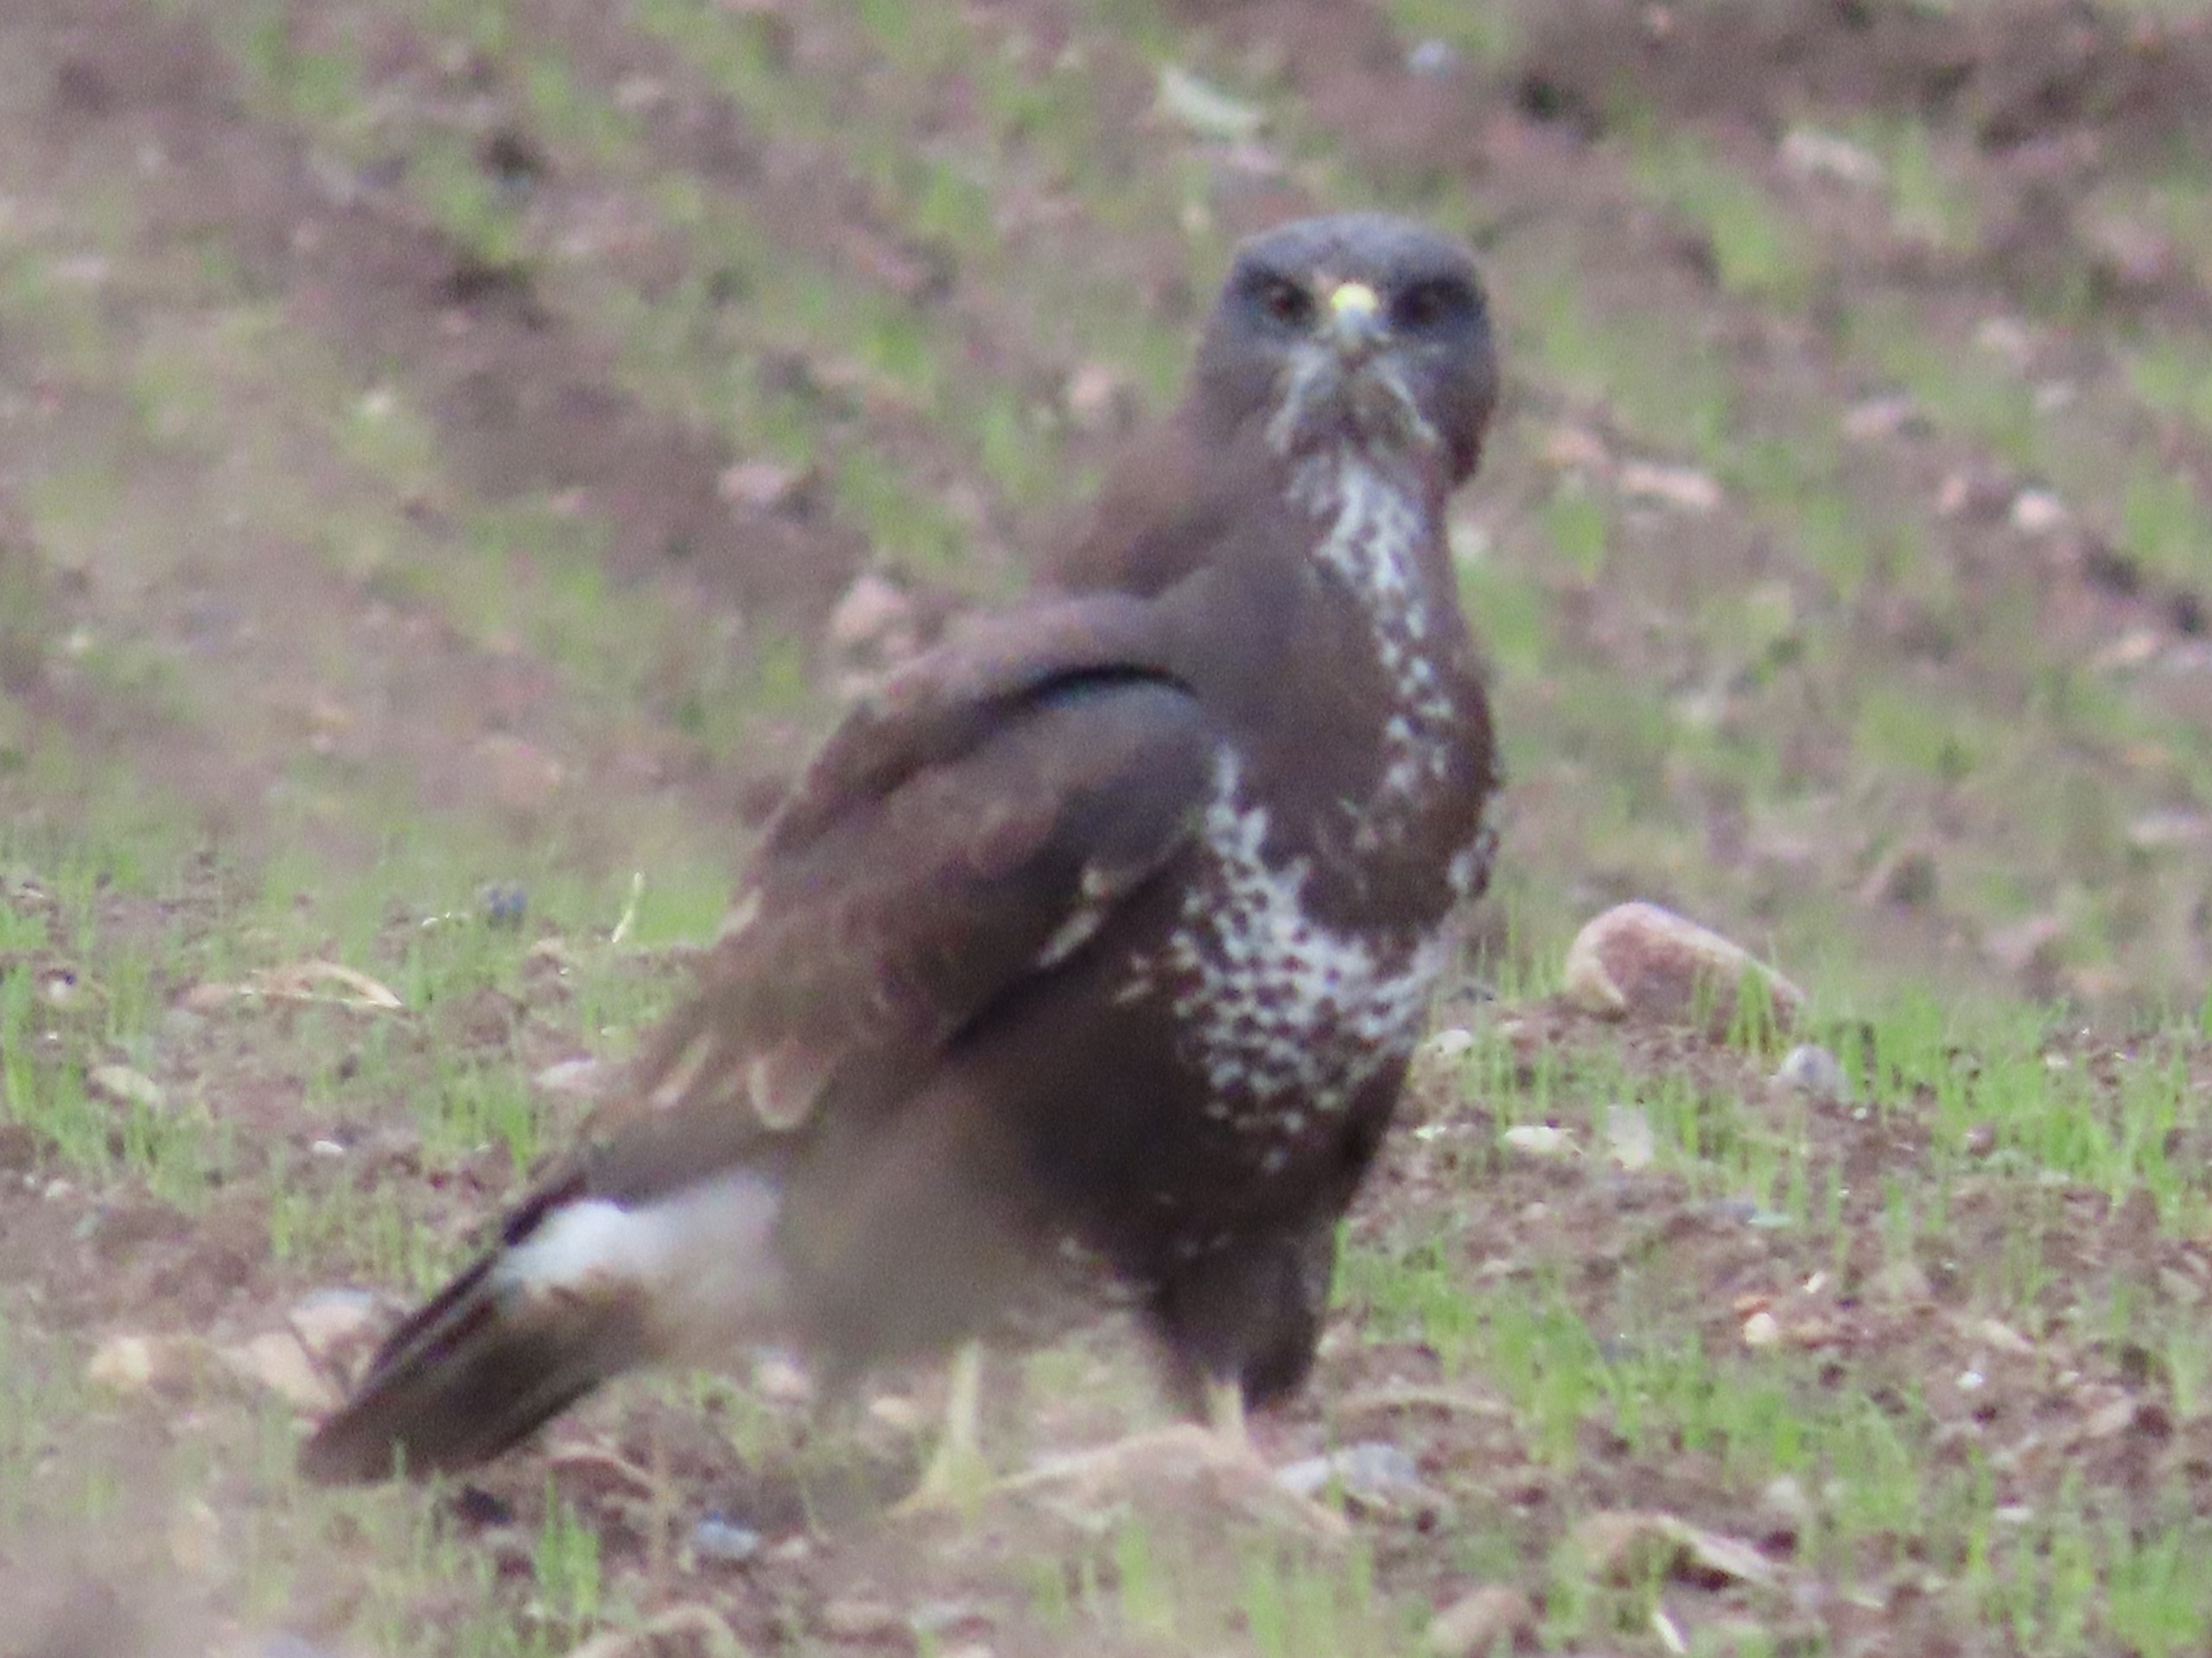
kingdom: Animalia
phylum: Chordata
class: Aves
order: Accipitriformes
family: Accipitridae
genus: Buteo
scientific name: Buteo buteo
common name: Musvåge
